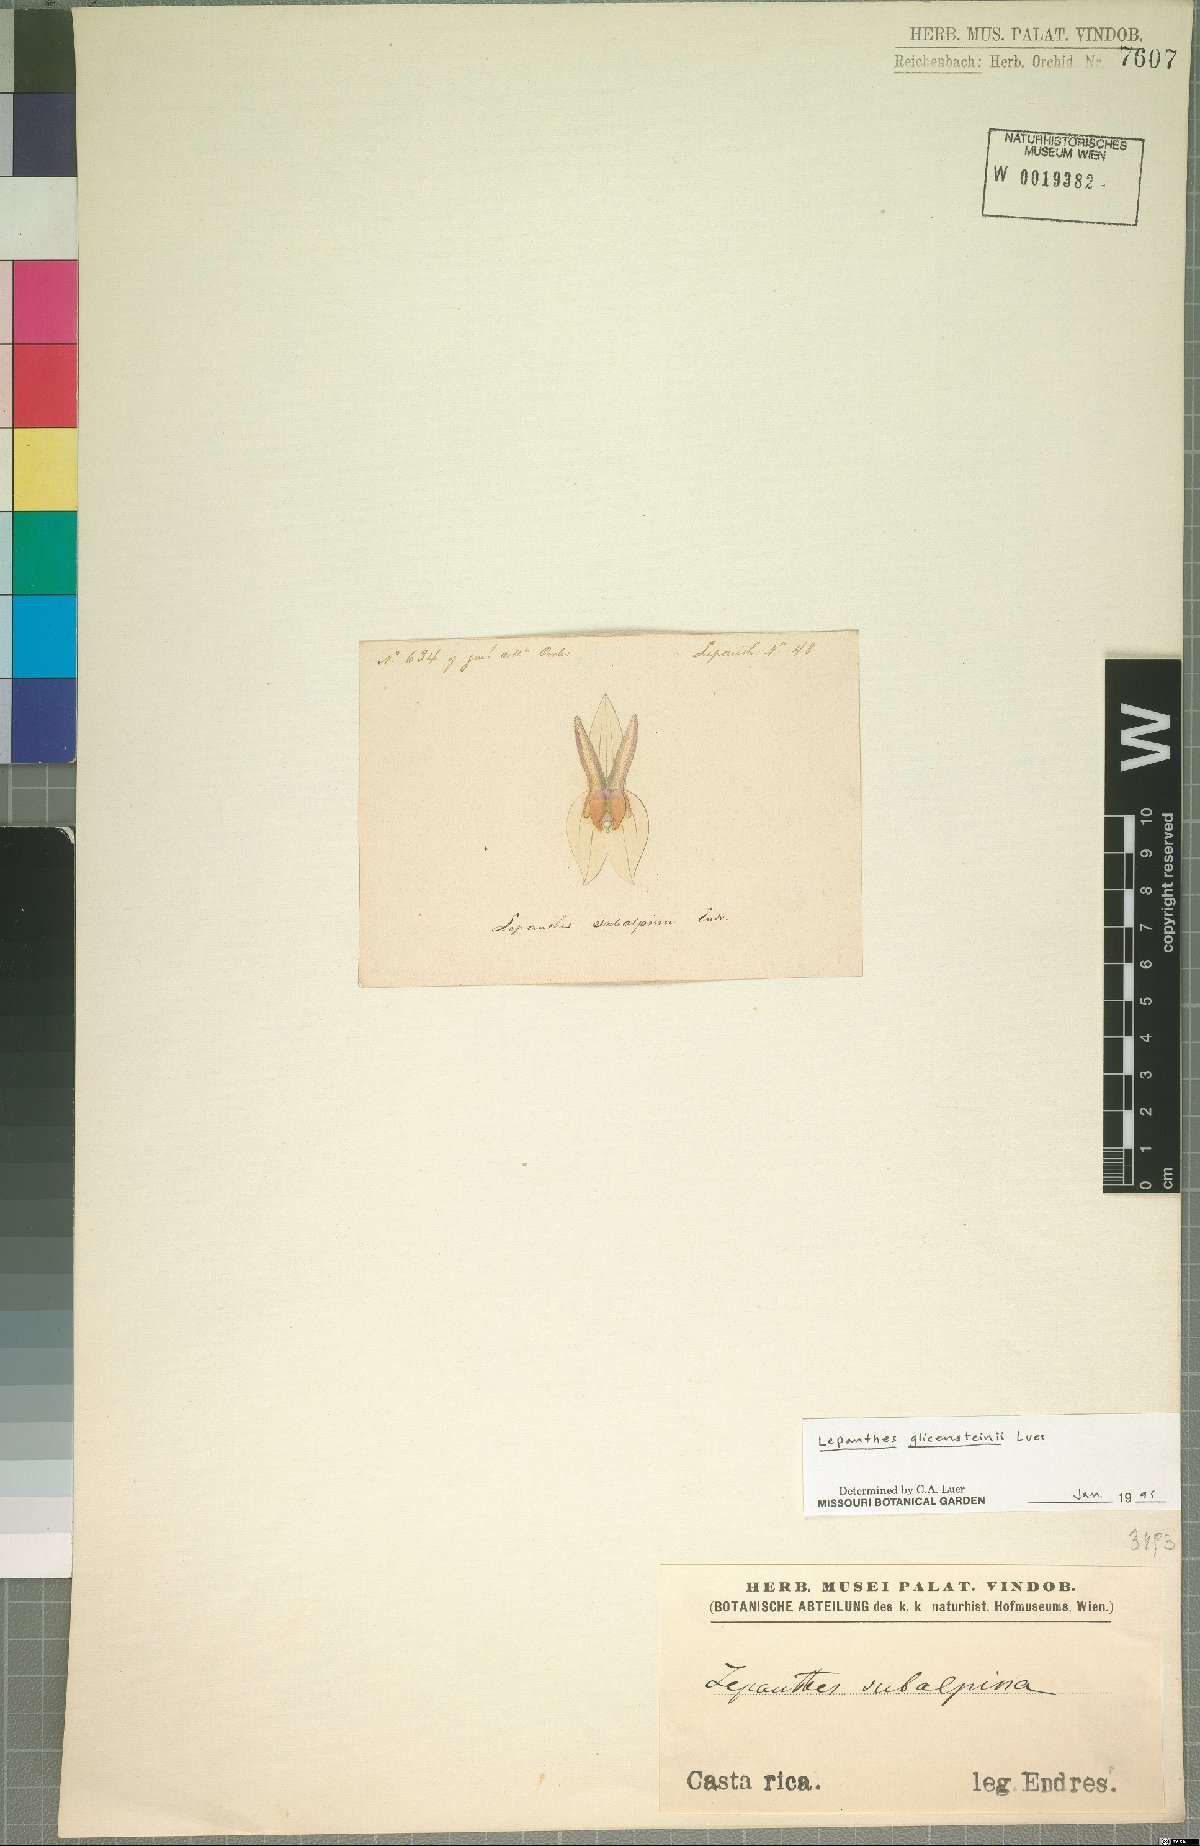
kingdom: Plantae
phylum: Tracheophyta
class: Liliopsida
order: Asparagales
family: Orchidaceae
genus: Lepanthes
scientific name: Lepanthes glicensteinii
